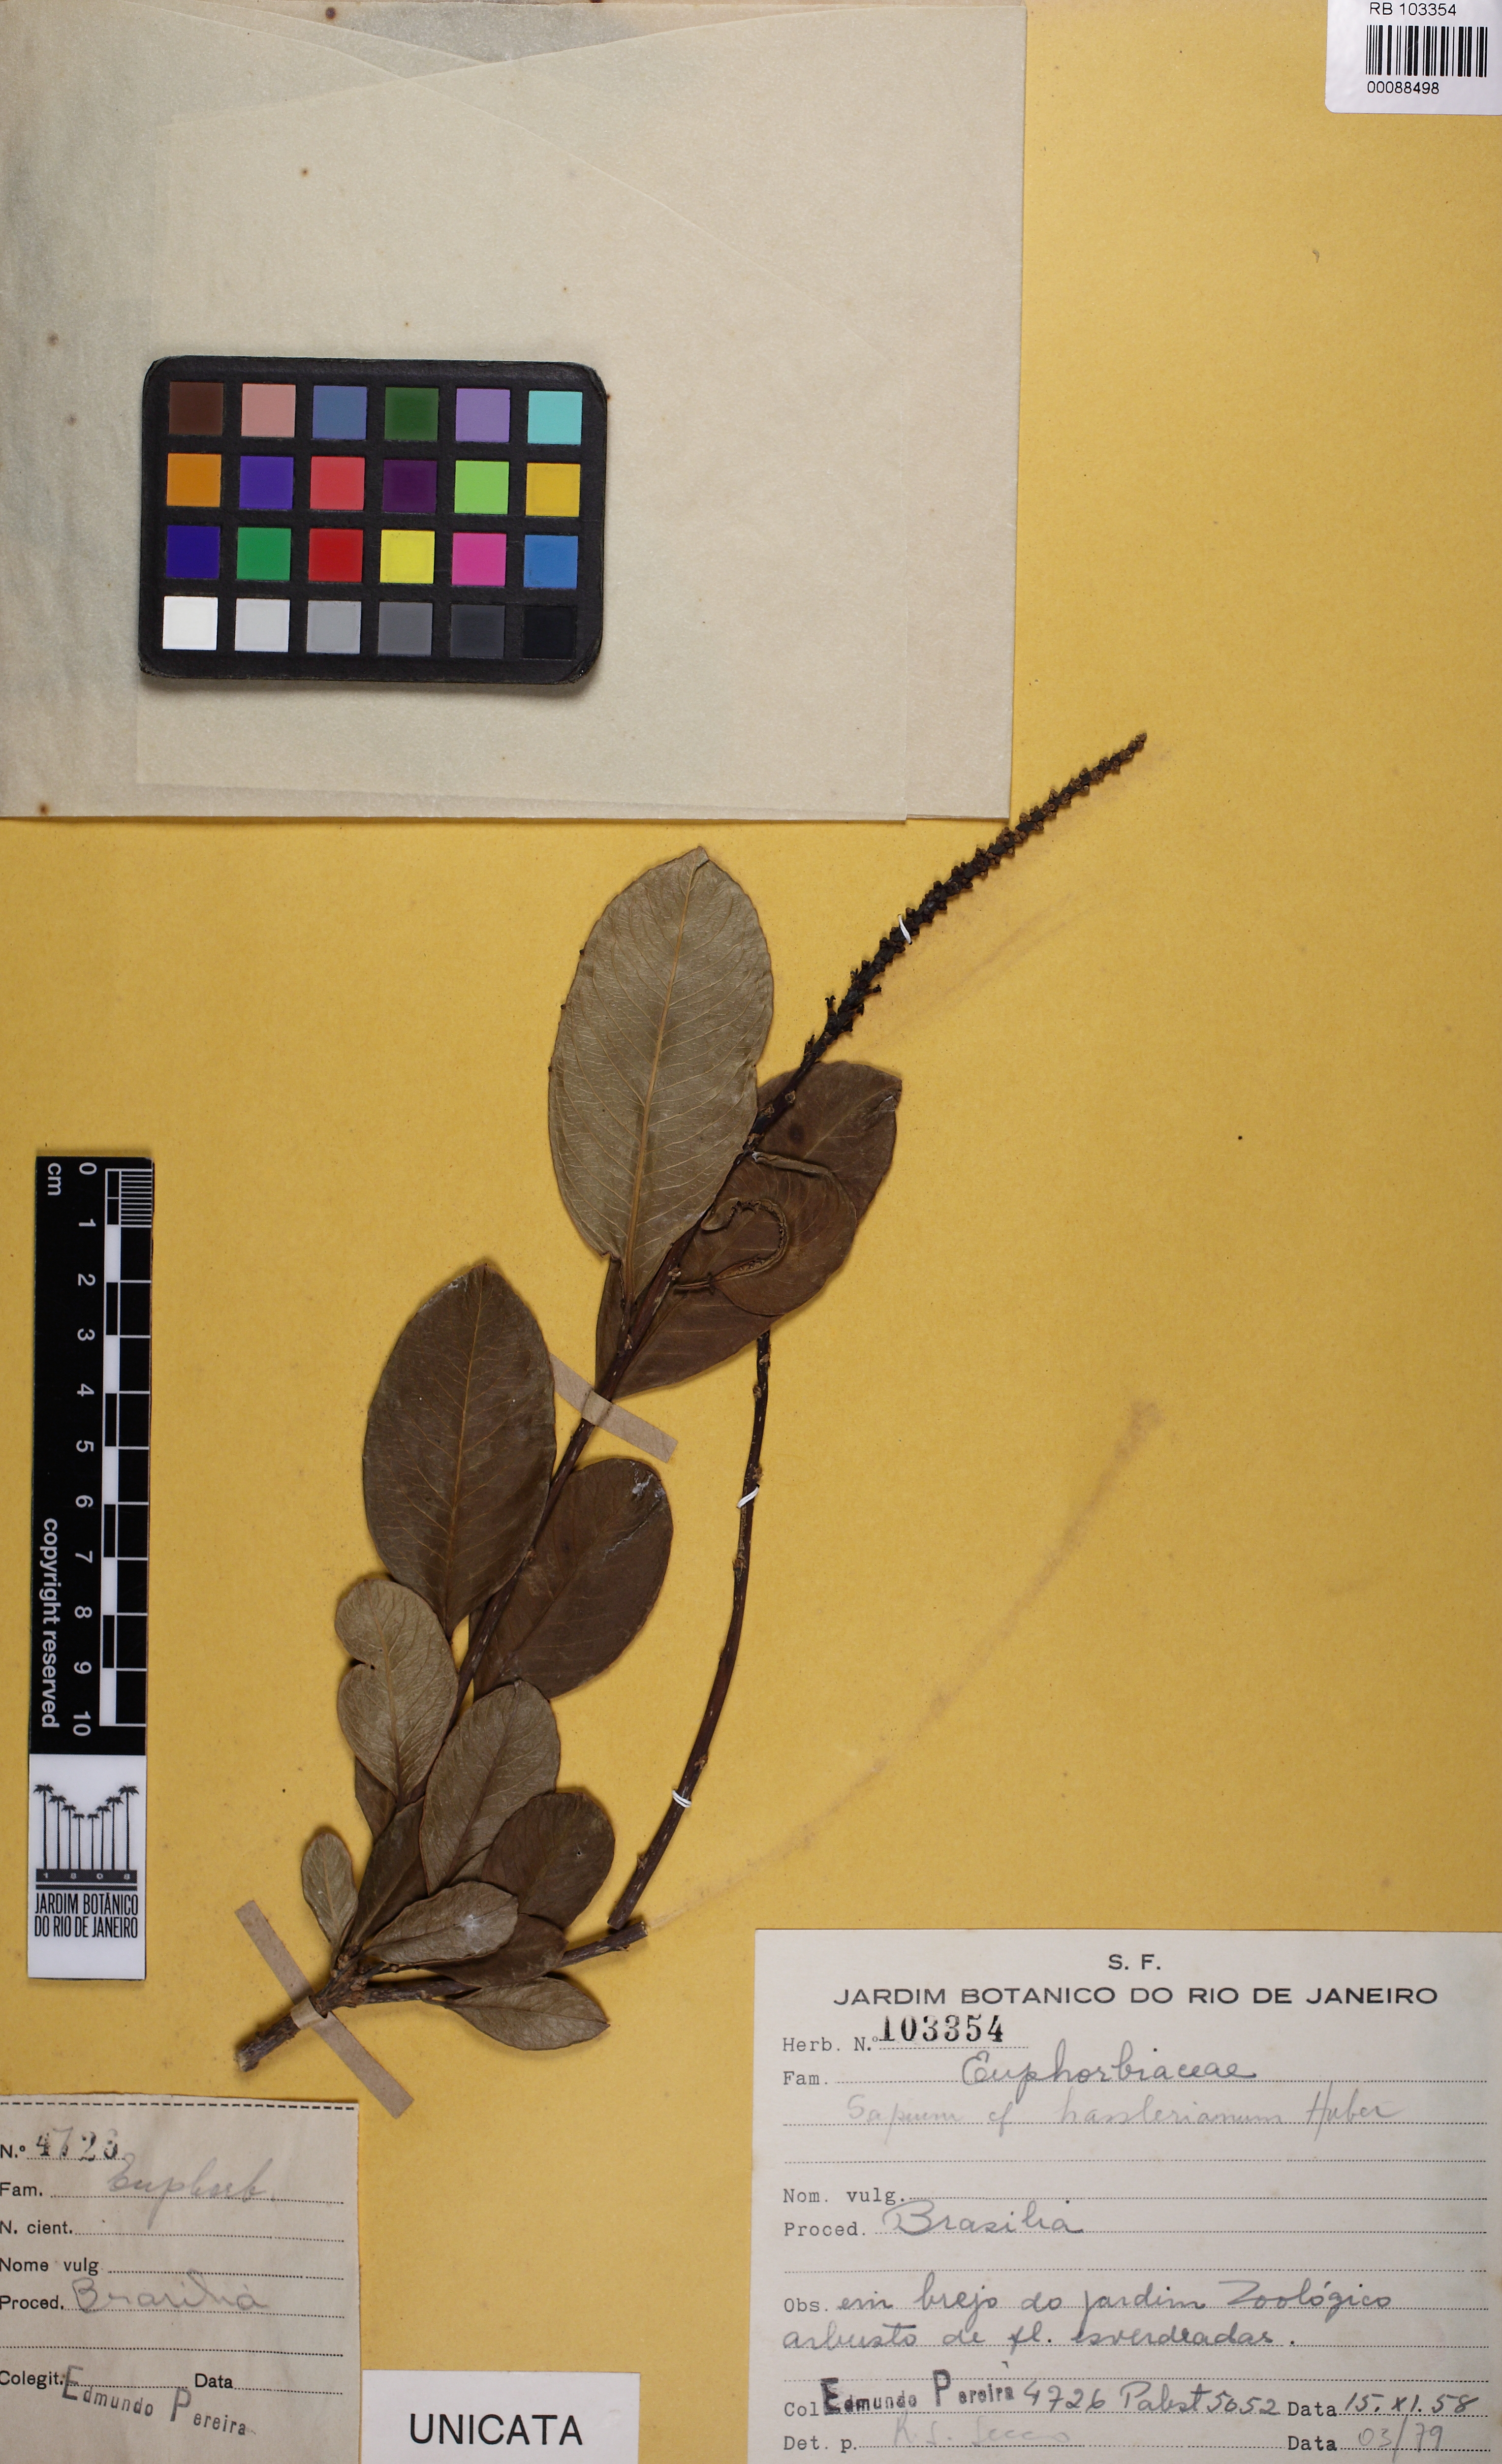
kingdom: Plantae
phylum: Tracheophyta
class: Magnoliopsida
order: Malpighiales
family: Euphorbiaceae
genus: Sapium
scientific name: Sapium obovatum
